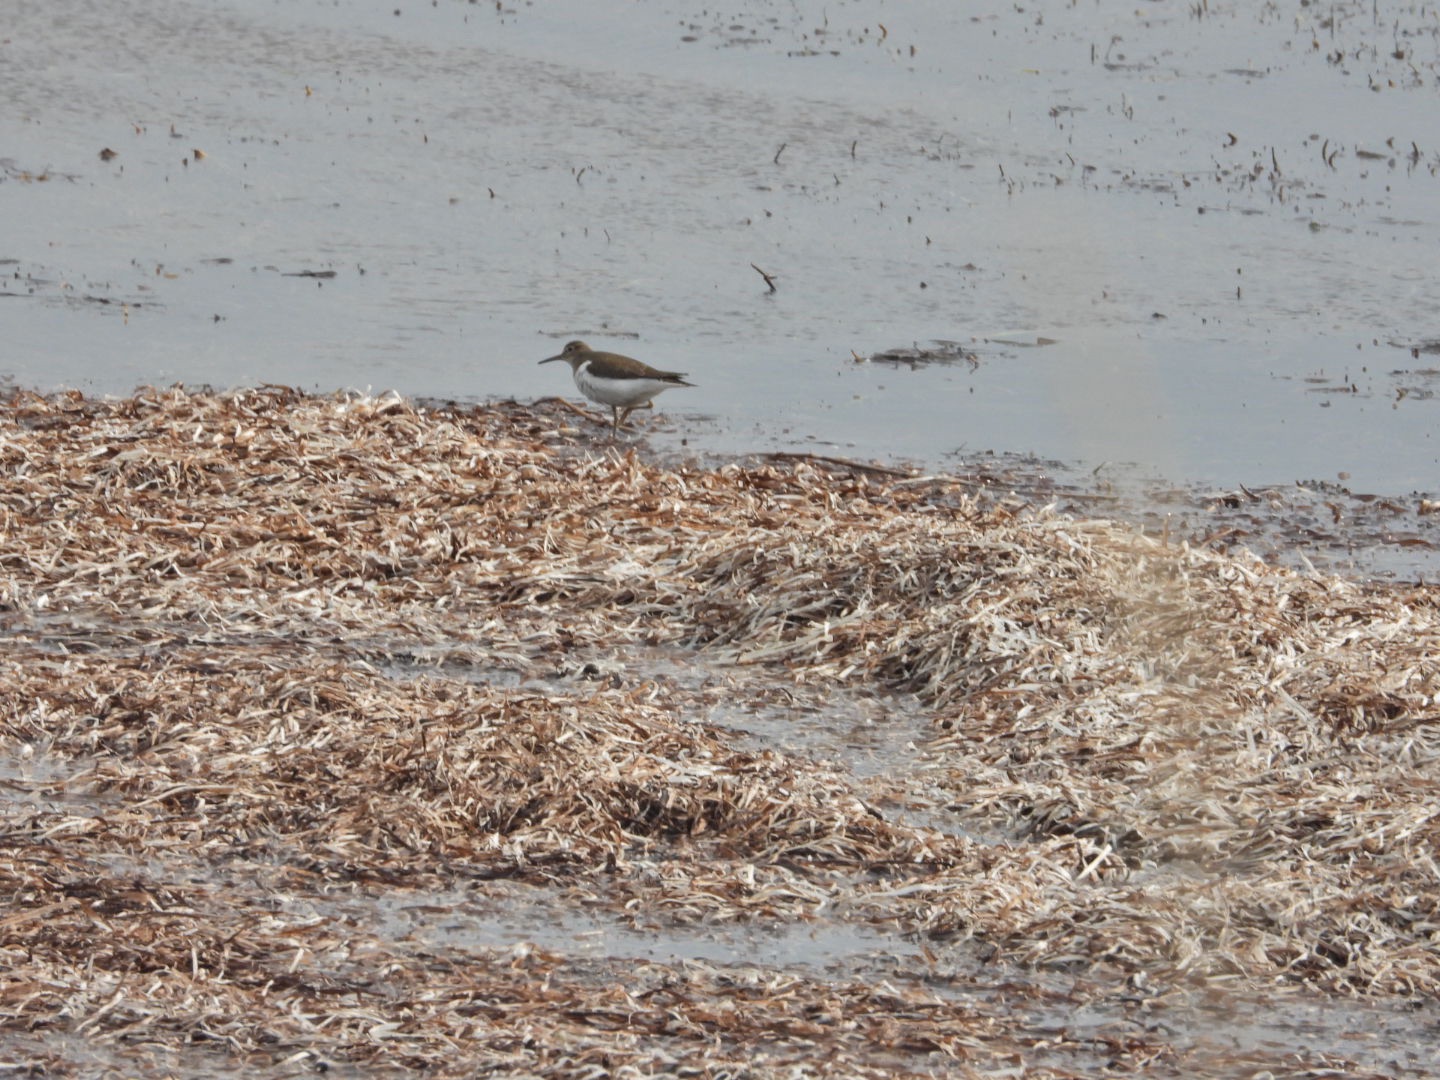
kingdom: Animalia
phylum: Chordata
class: Aves
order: Charadriiformes
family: Scolopacidae
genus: Actitis
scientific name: Actitis hypoleucos
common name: Mudderklire
